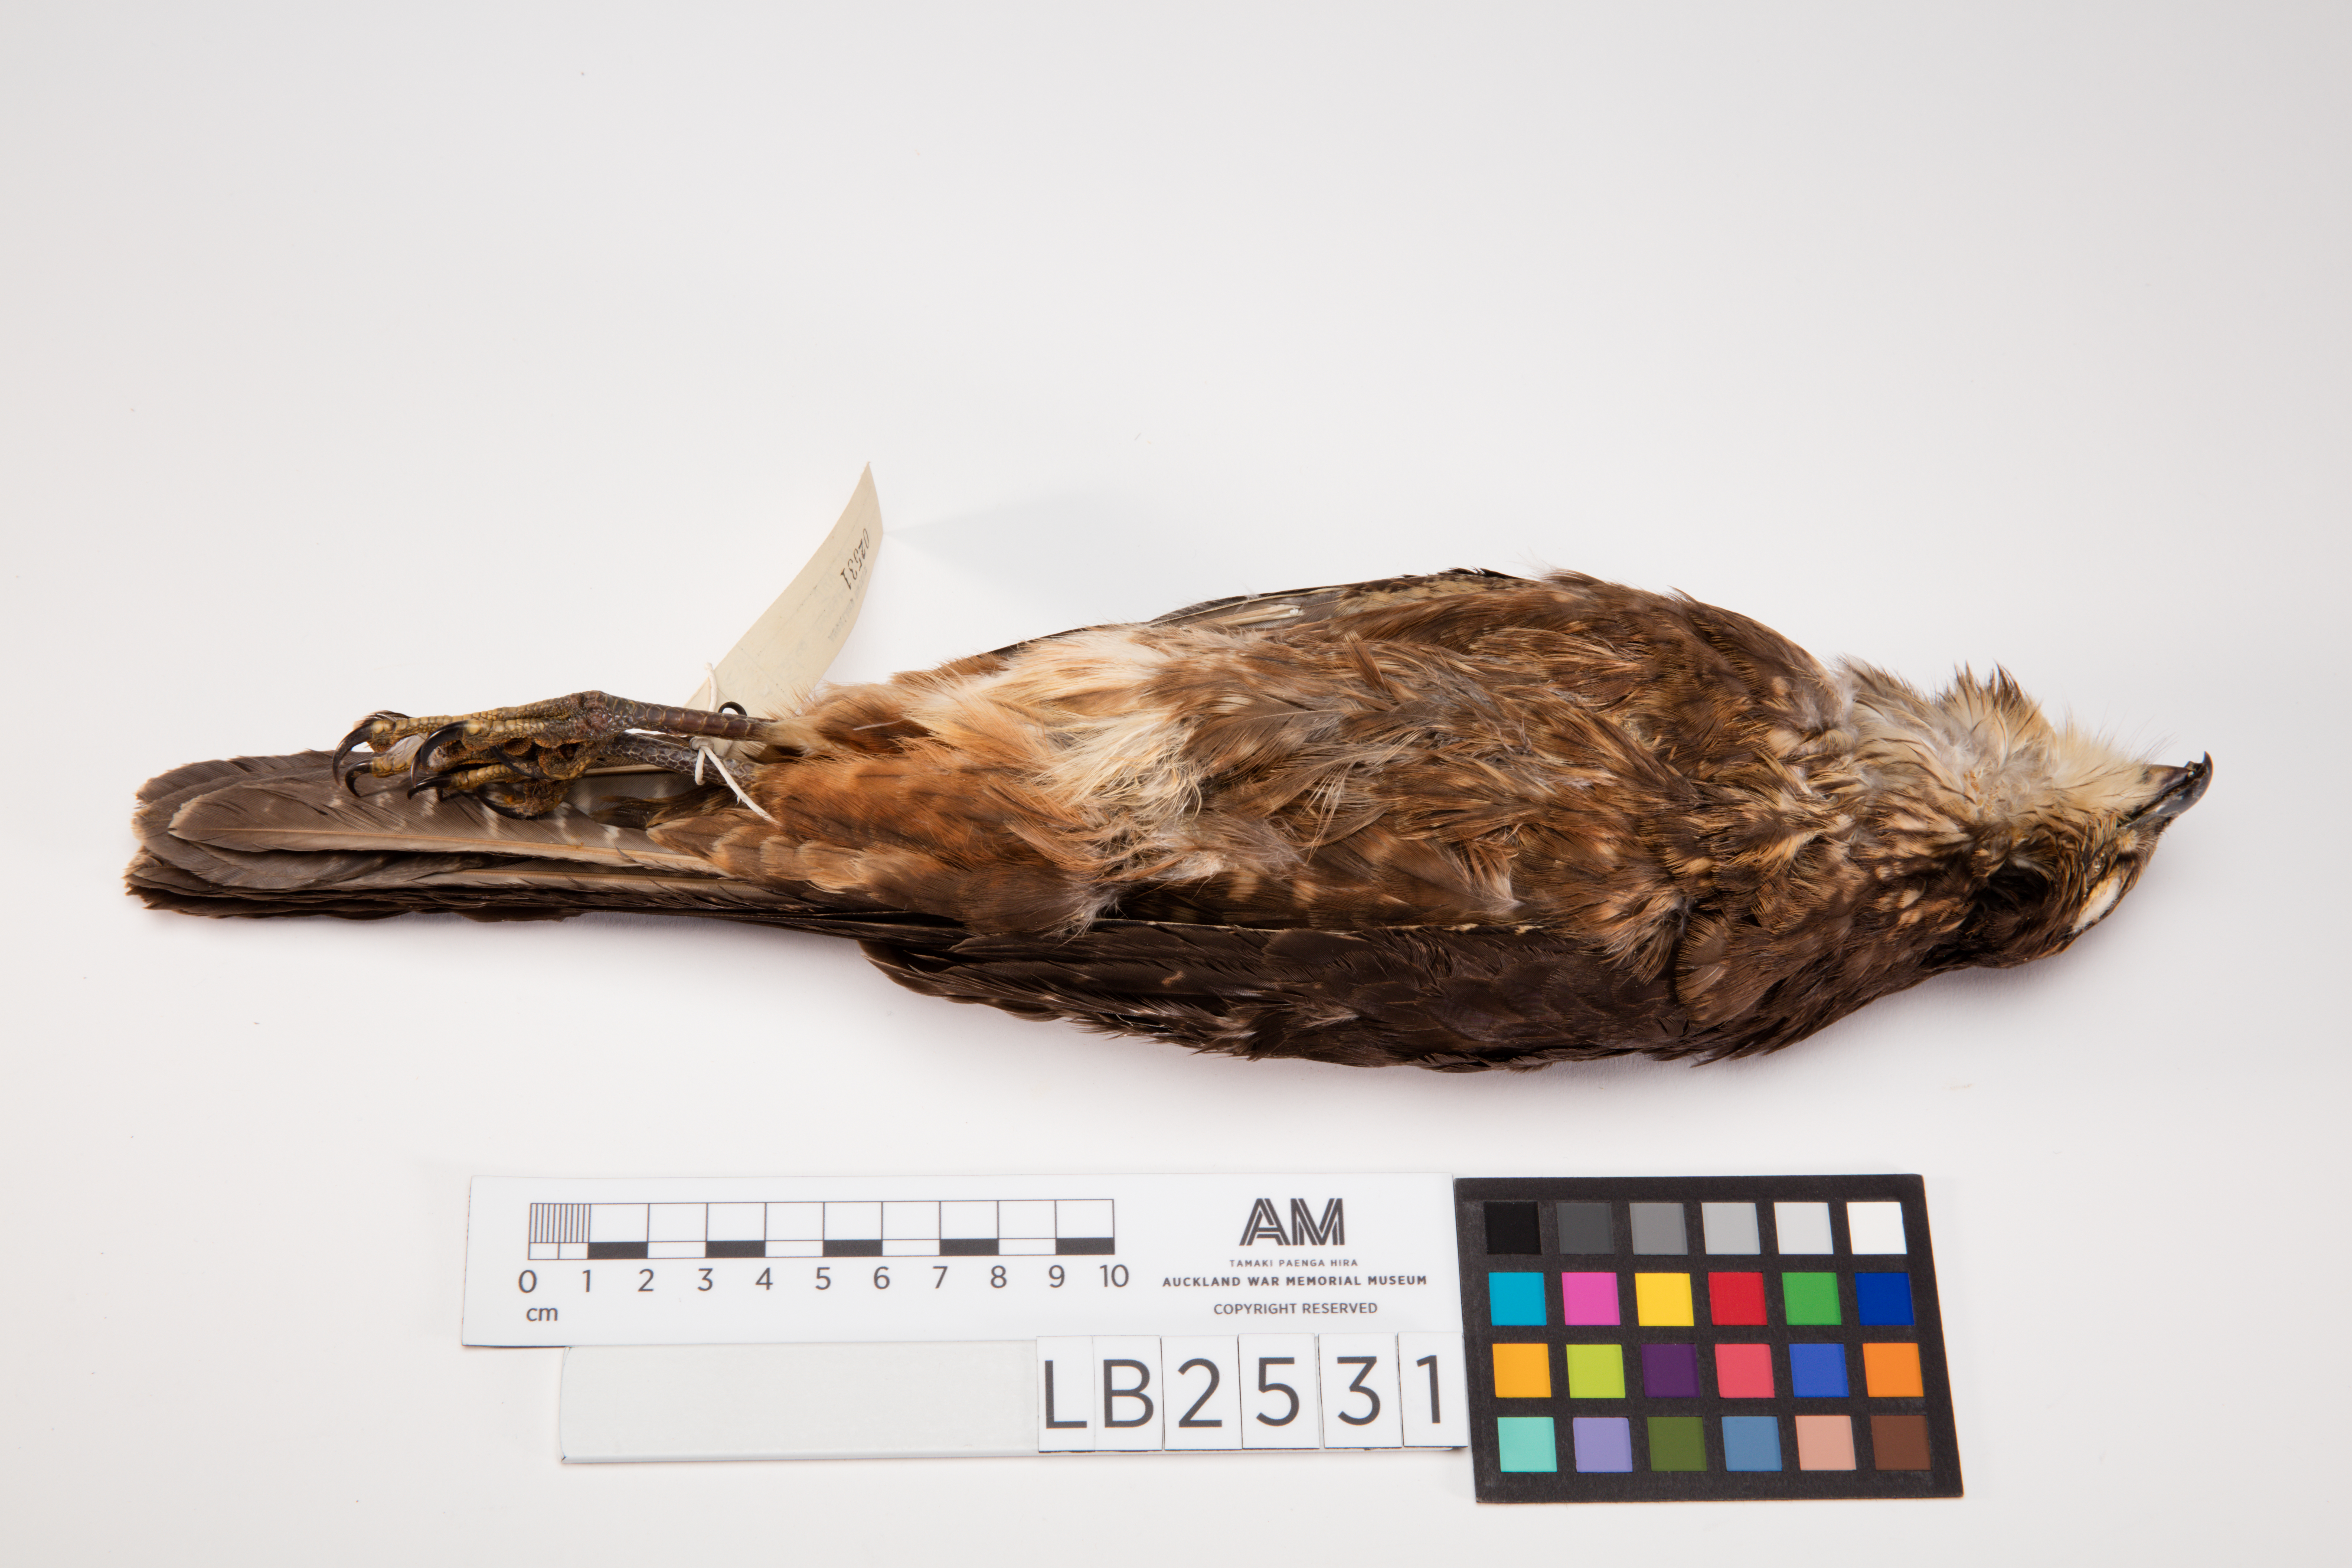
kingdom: Animalia
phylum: Chordata
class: Aves
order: Falconiformes
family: Falconidae
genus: Falco
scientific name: Falco novaeseelandiae
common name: New zealand falcon
